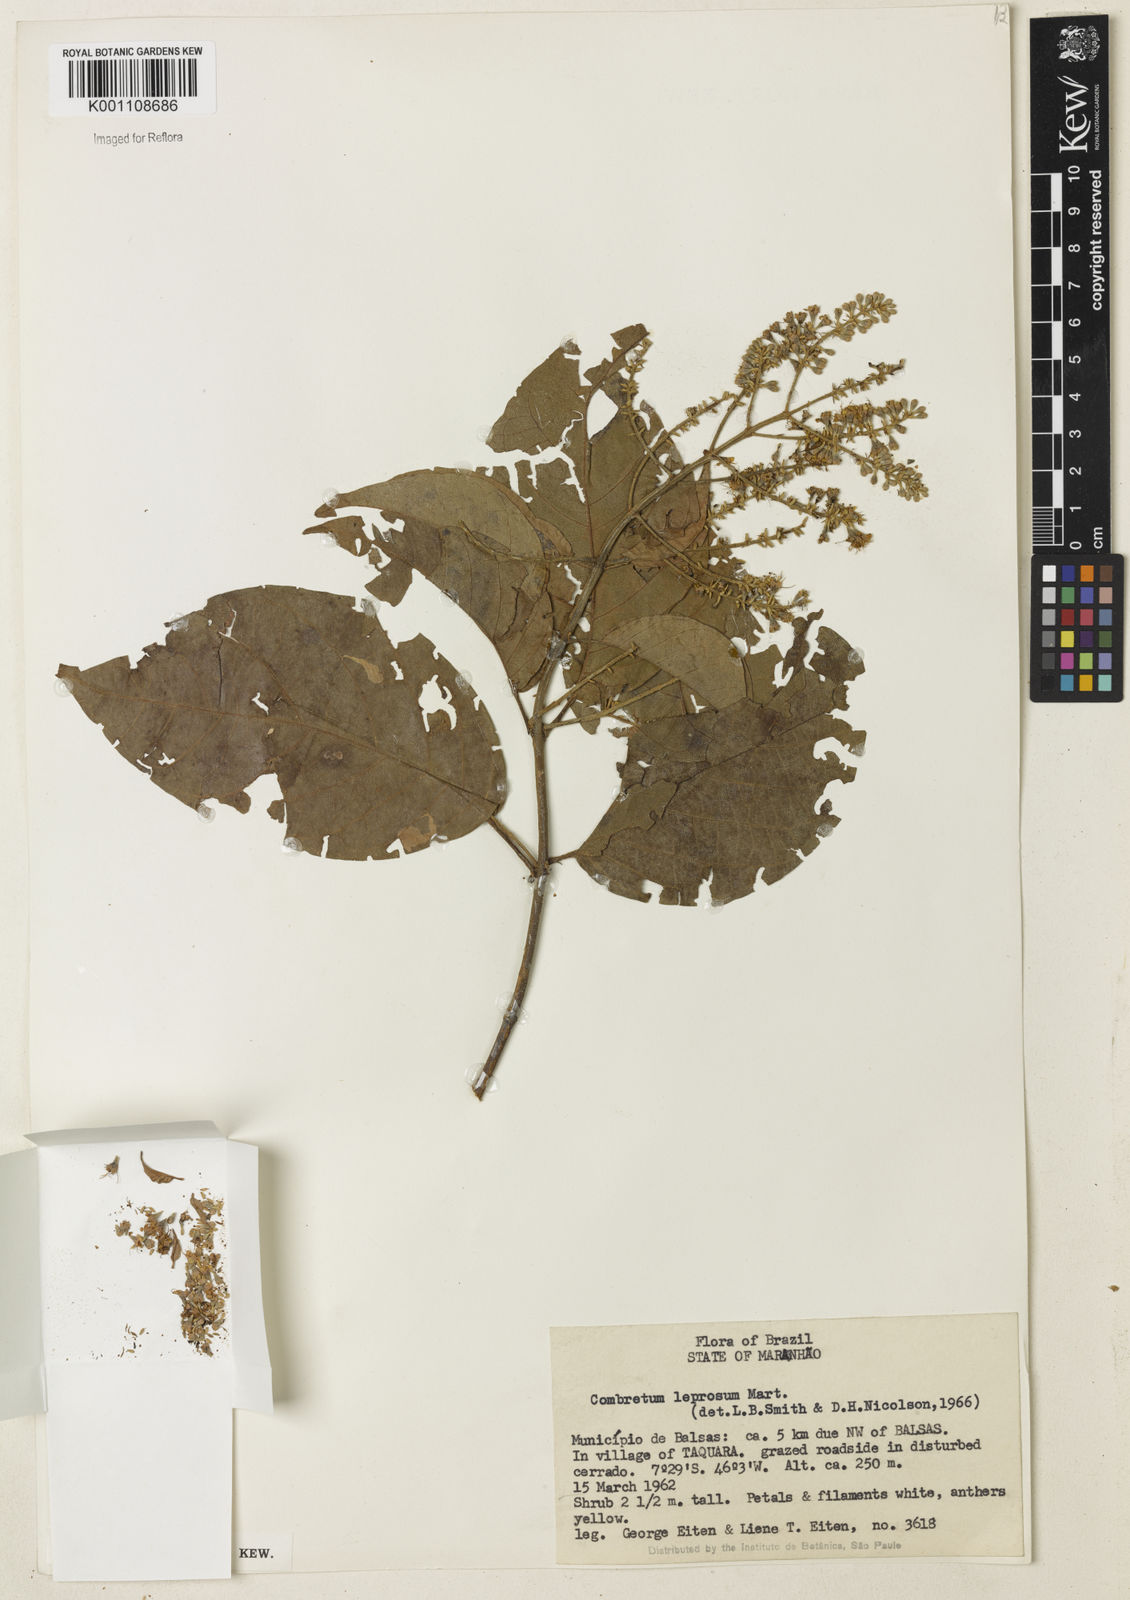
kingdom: Plantae
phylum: Tracheophyta
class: Magnoliopsida
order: Myrtales
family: Combretaceae
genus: Combretum
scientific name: Combretum leprosum
